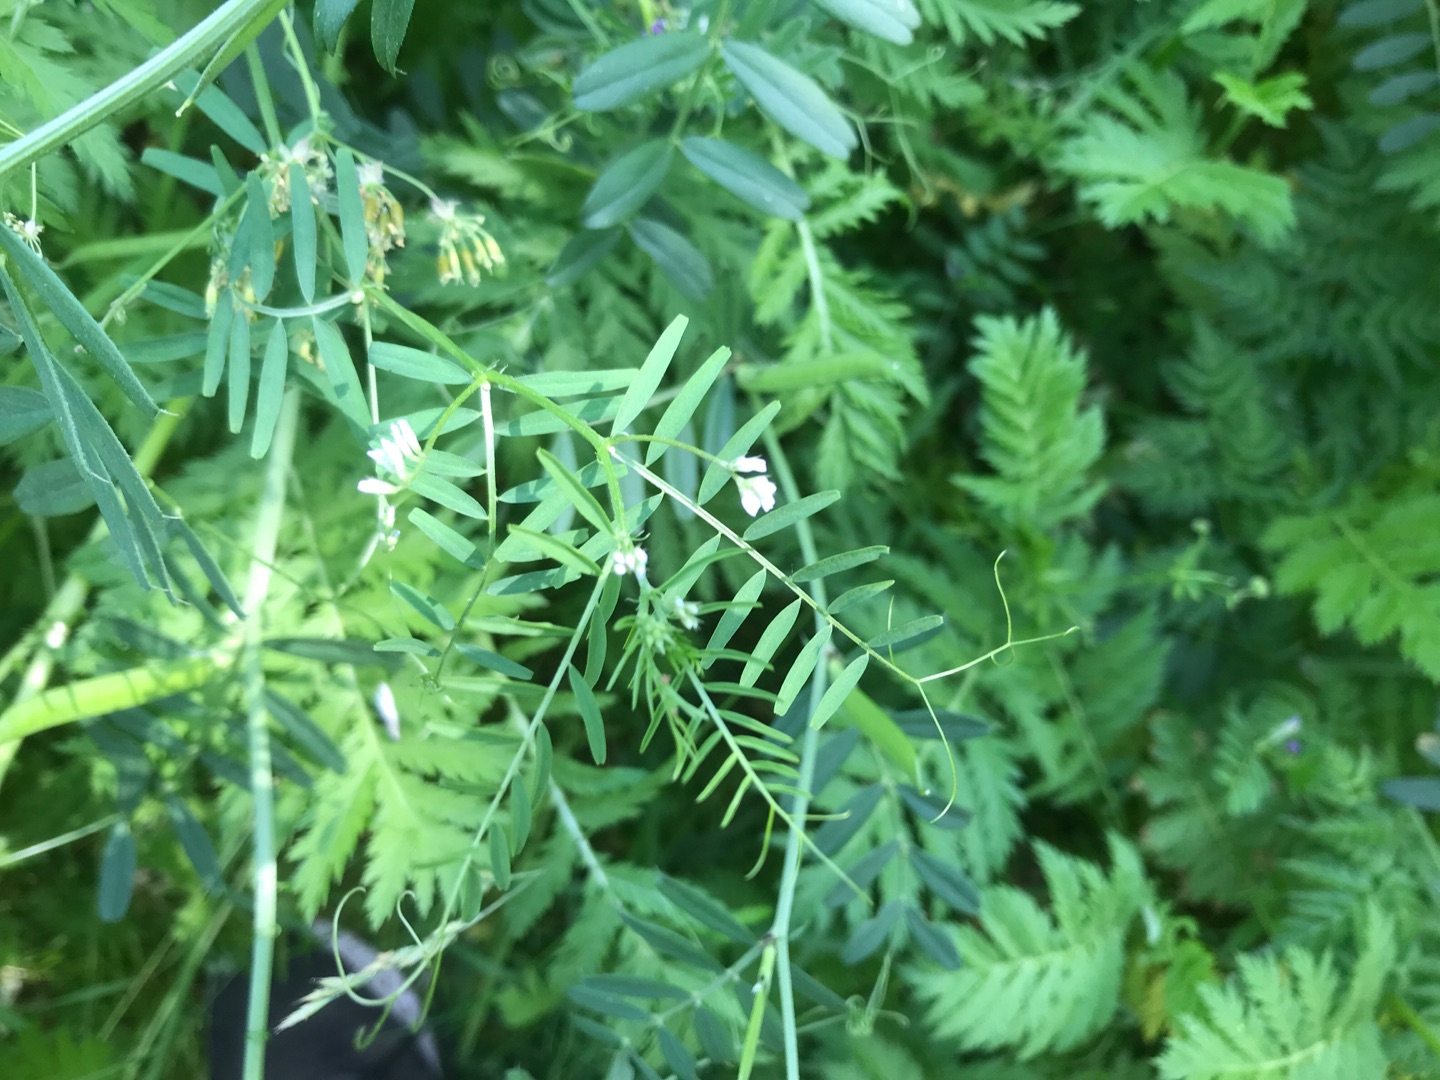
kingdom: Plantae
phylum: Tracheophyta
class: Magnoliopsida
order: Fabales
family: Fabaceae
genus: Vicia
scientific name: Vicia hirsuta
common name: Tofrøet vikke
